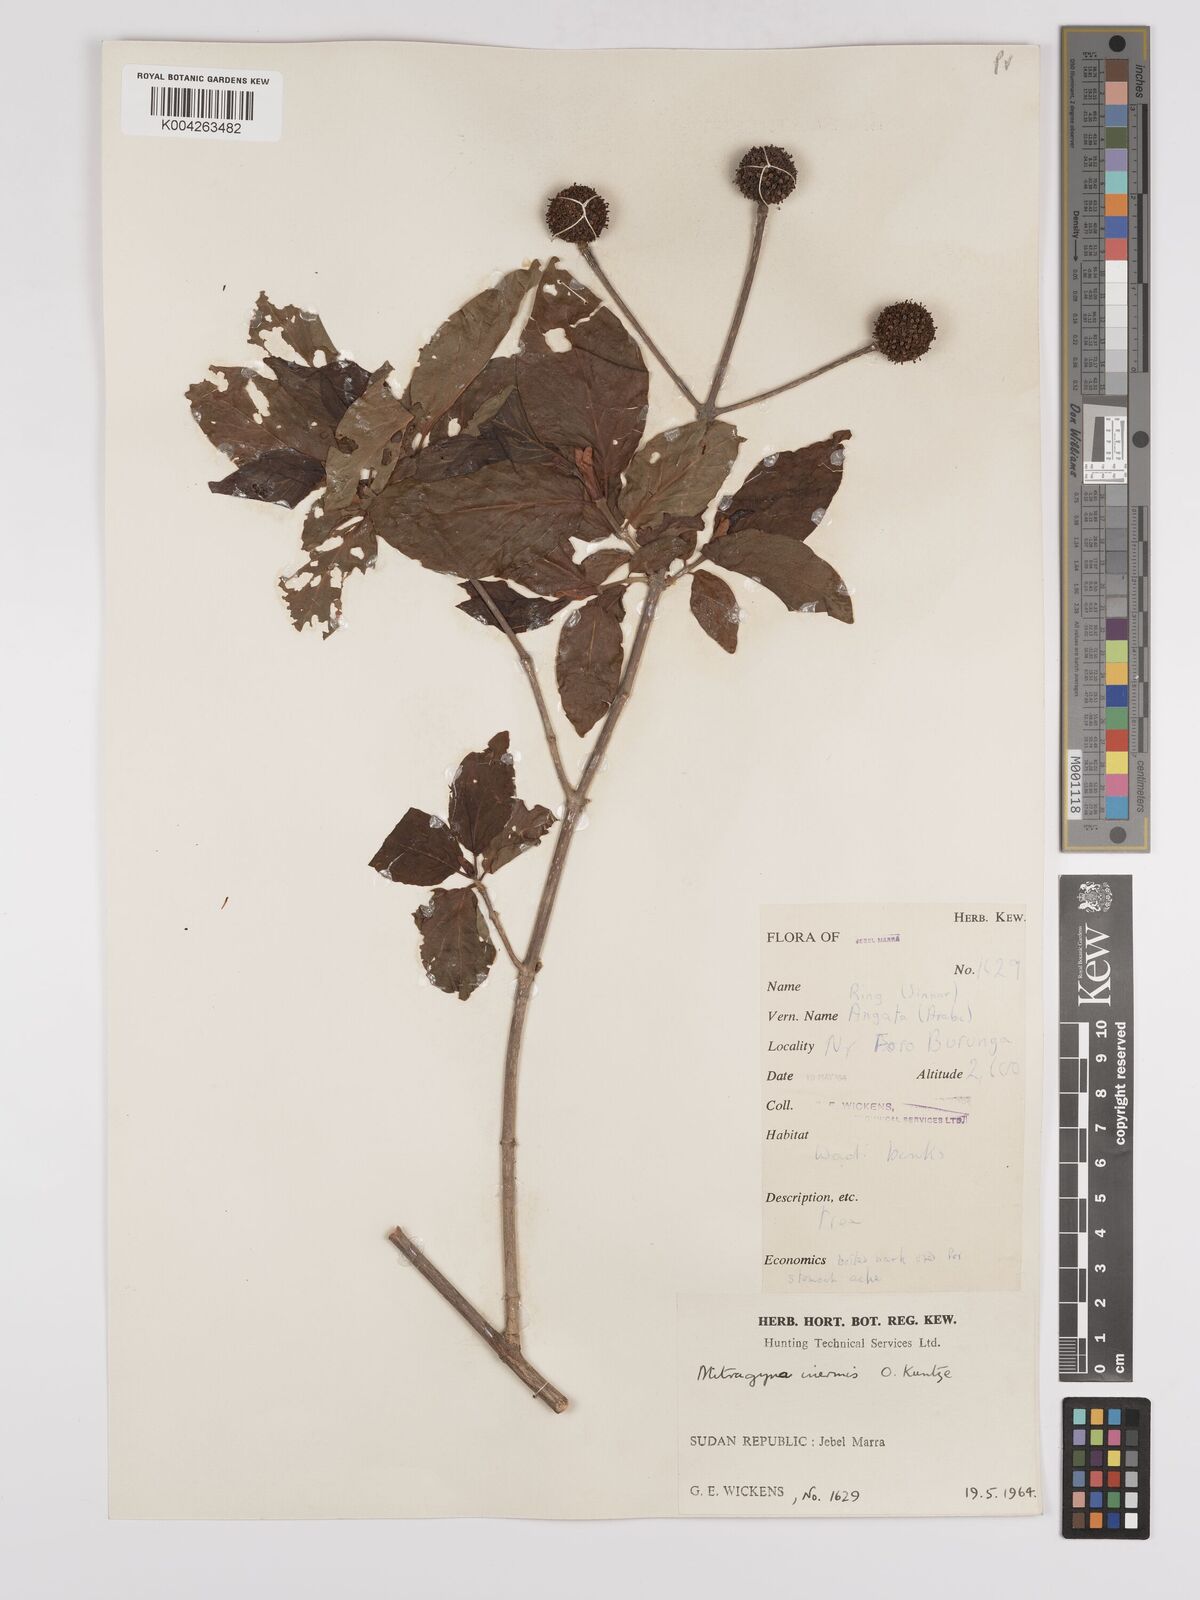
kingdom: Plantae
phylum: Tracheophyta
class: Magnoliopsida
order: Gentianales
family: Rubiaceae
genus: Mitragyna
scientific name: Mitragyna inermis
